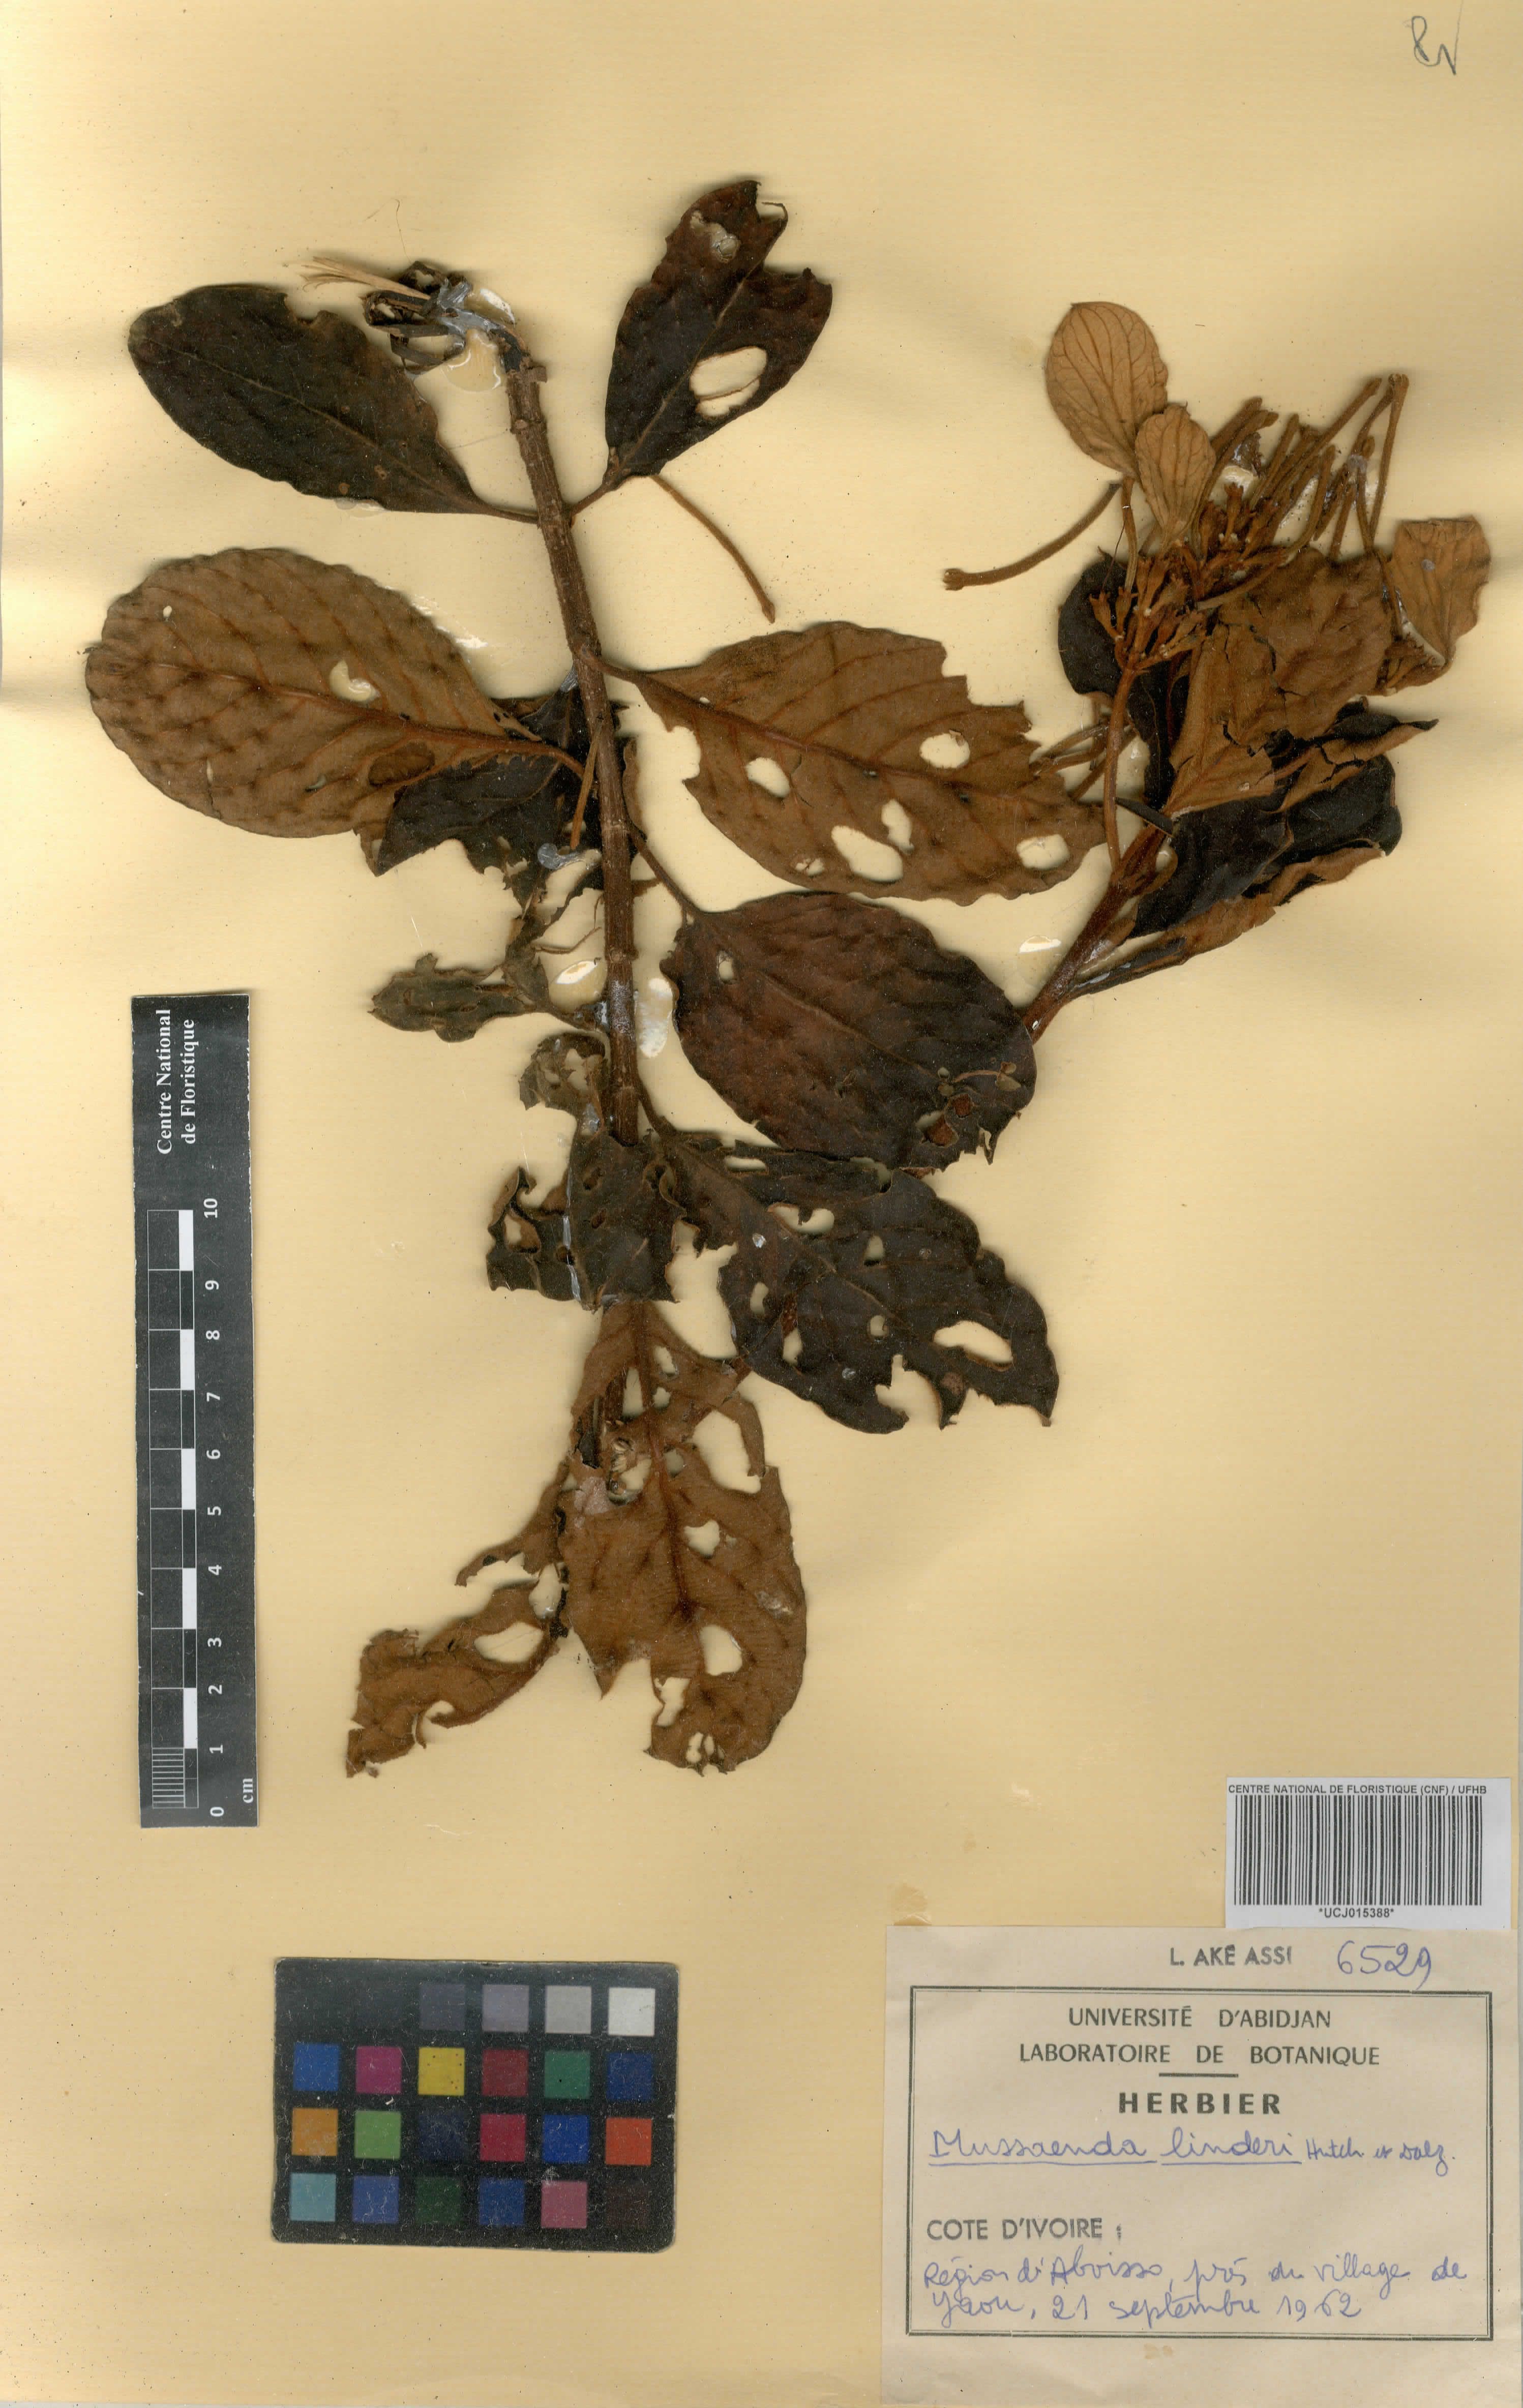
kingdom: Plantae
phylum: Tracheophyta
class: Magnoliopsida
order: Gentianales
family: Rubiaceae
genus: Mussaenda
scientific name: Mussaenda linderi
